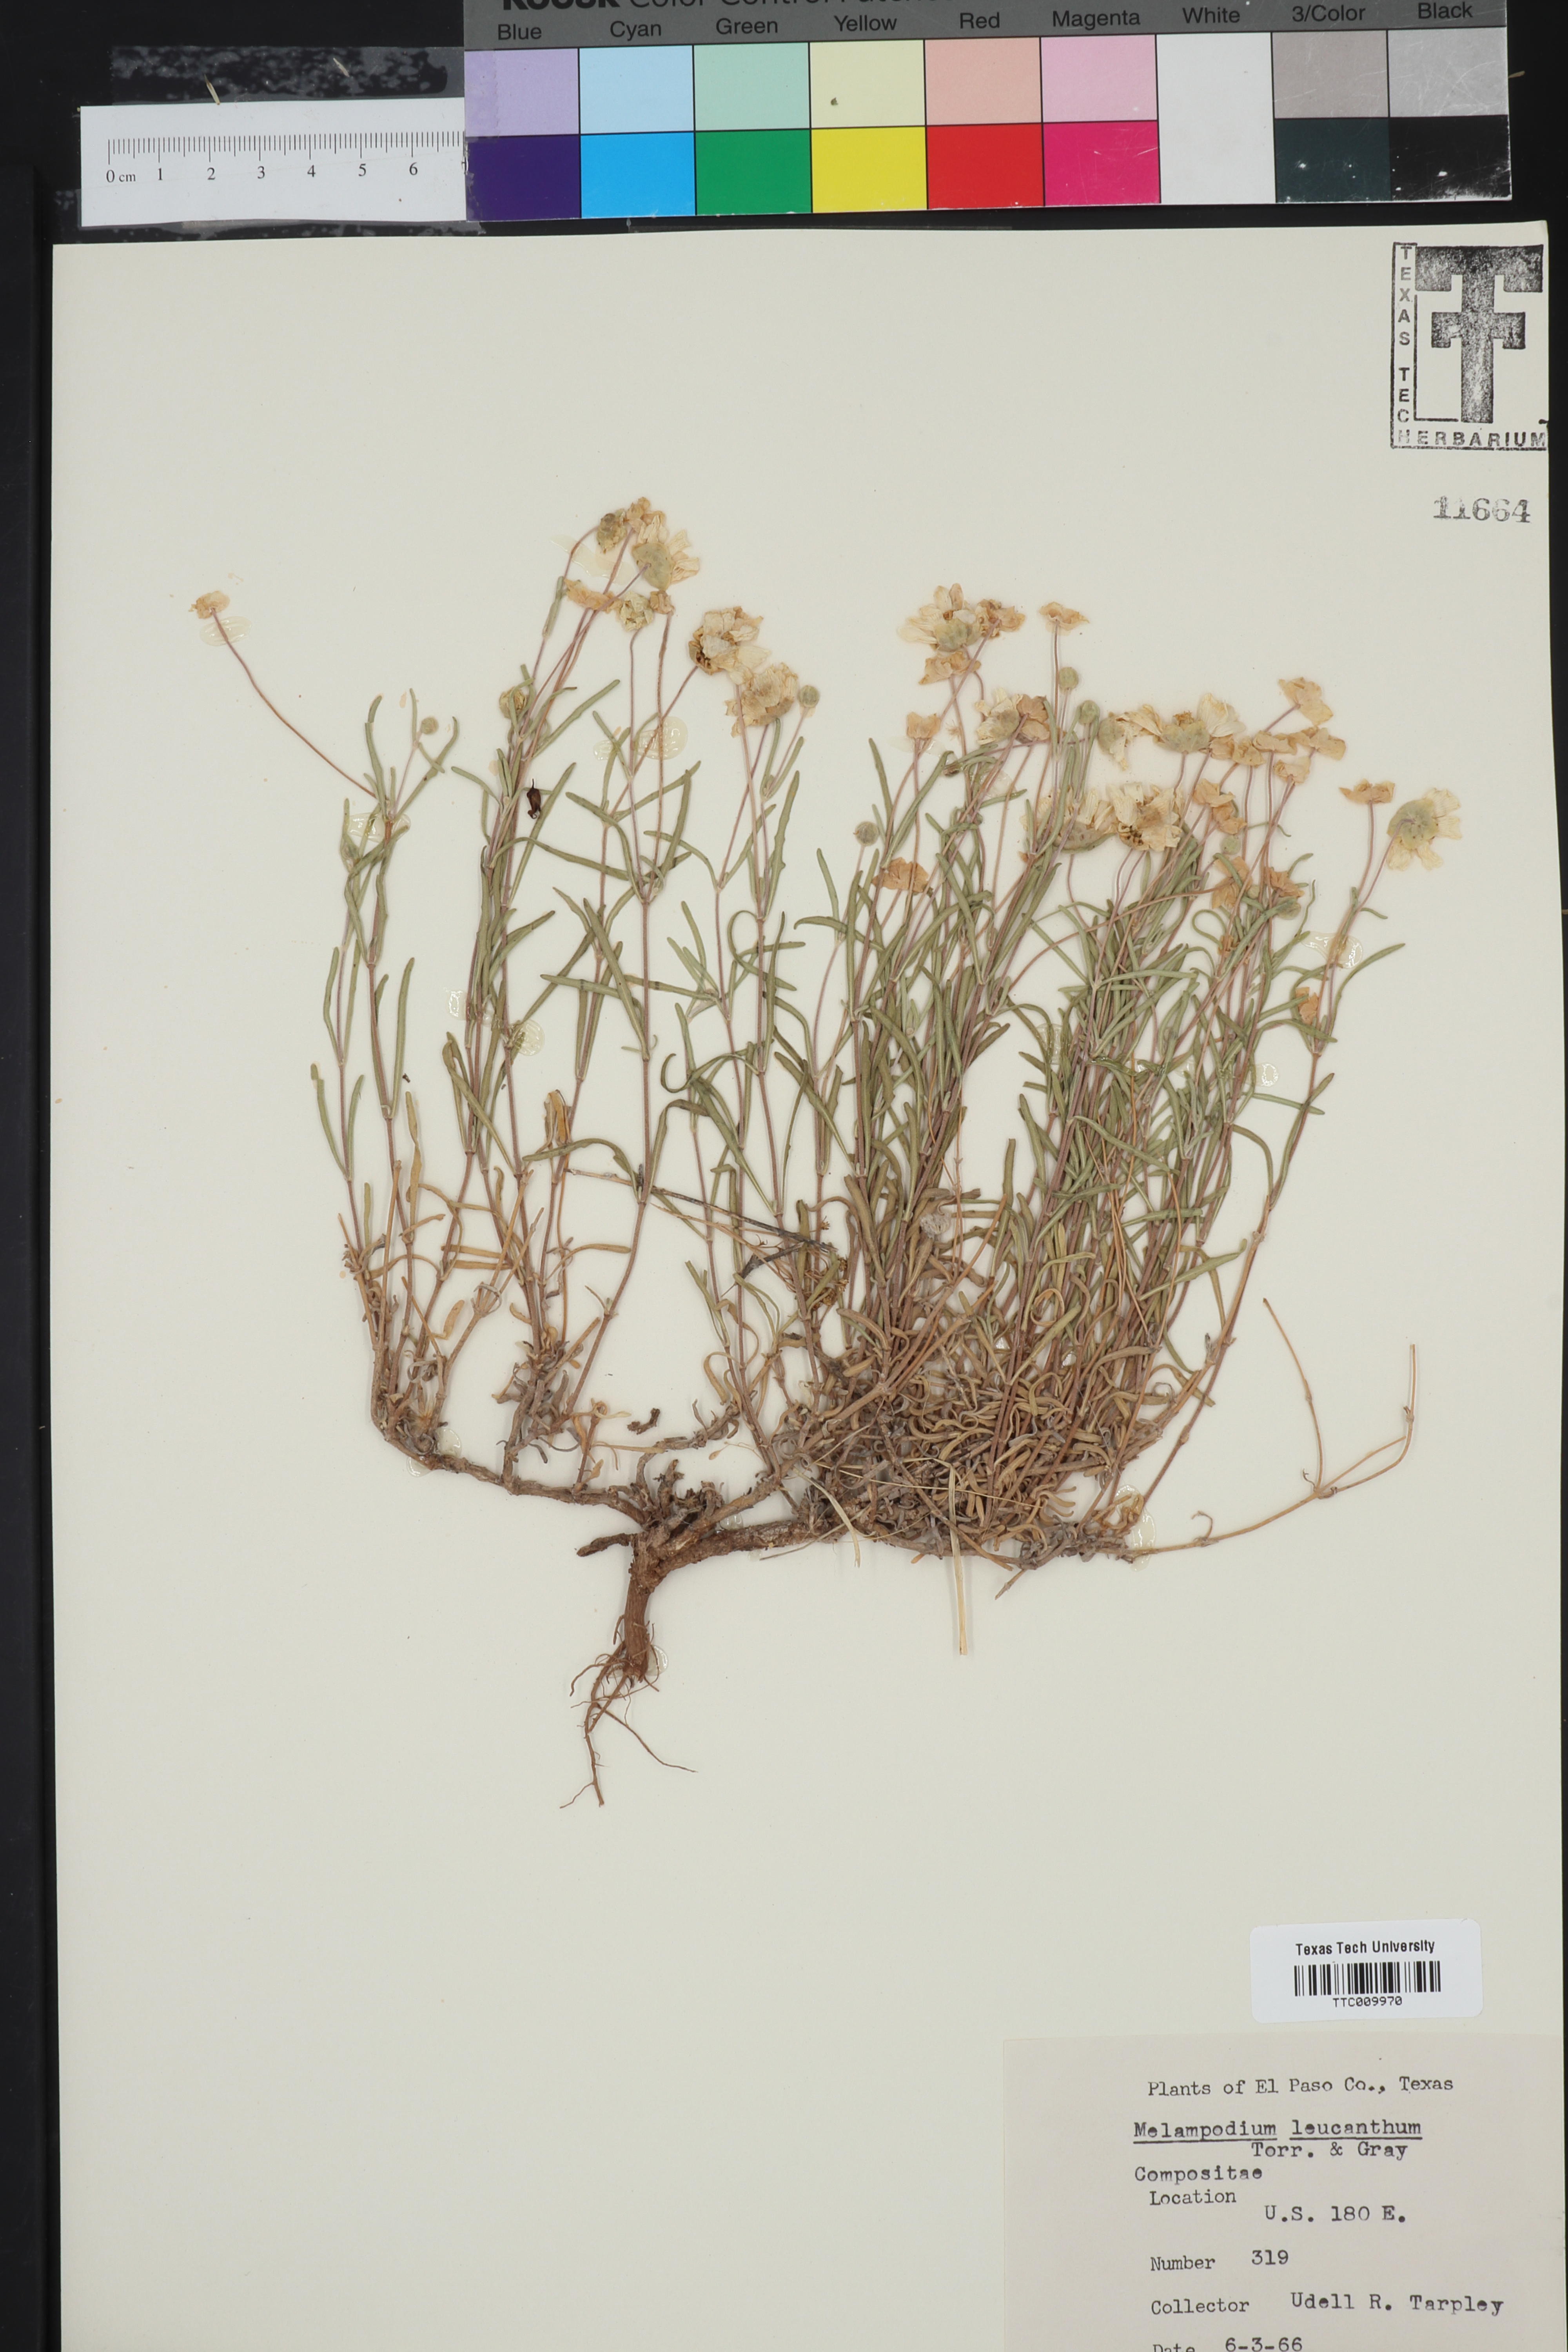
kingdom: Plantae
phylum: Tracheophyta
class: Magnoliopsida
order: Asterales
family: Asteraceae
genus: Melampodium
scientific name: Melampodium leucanthum
